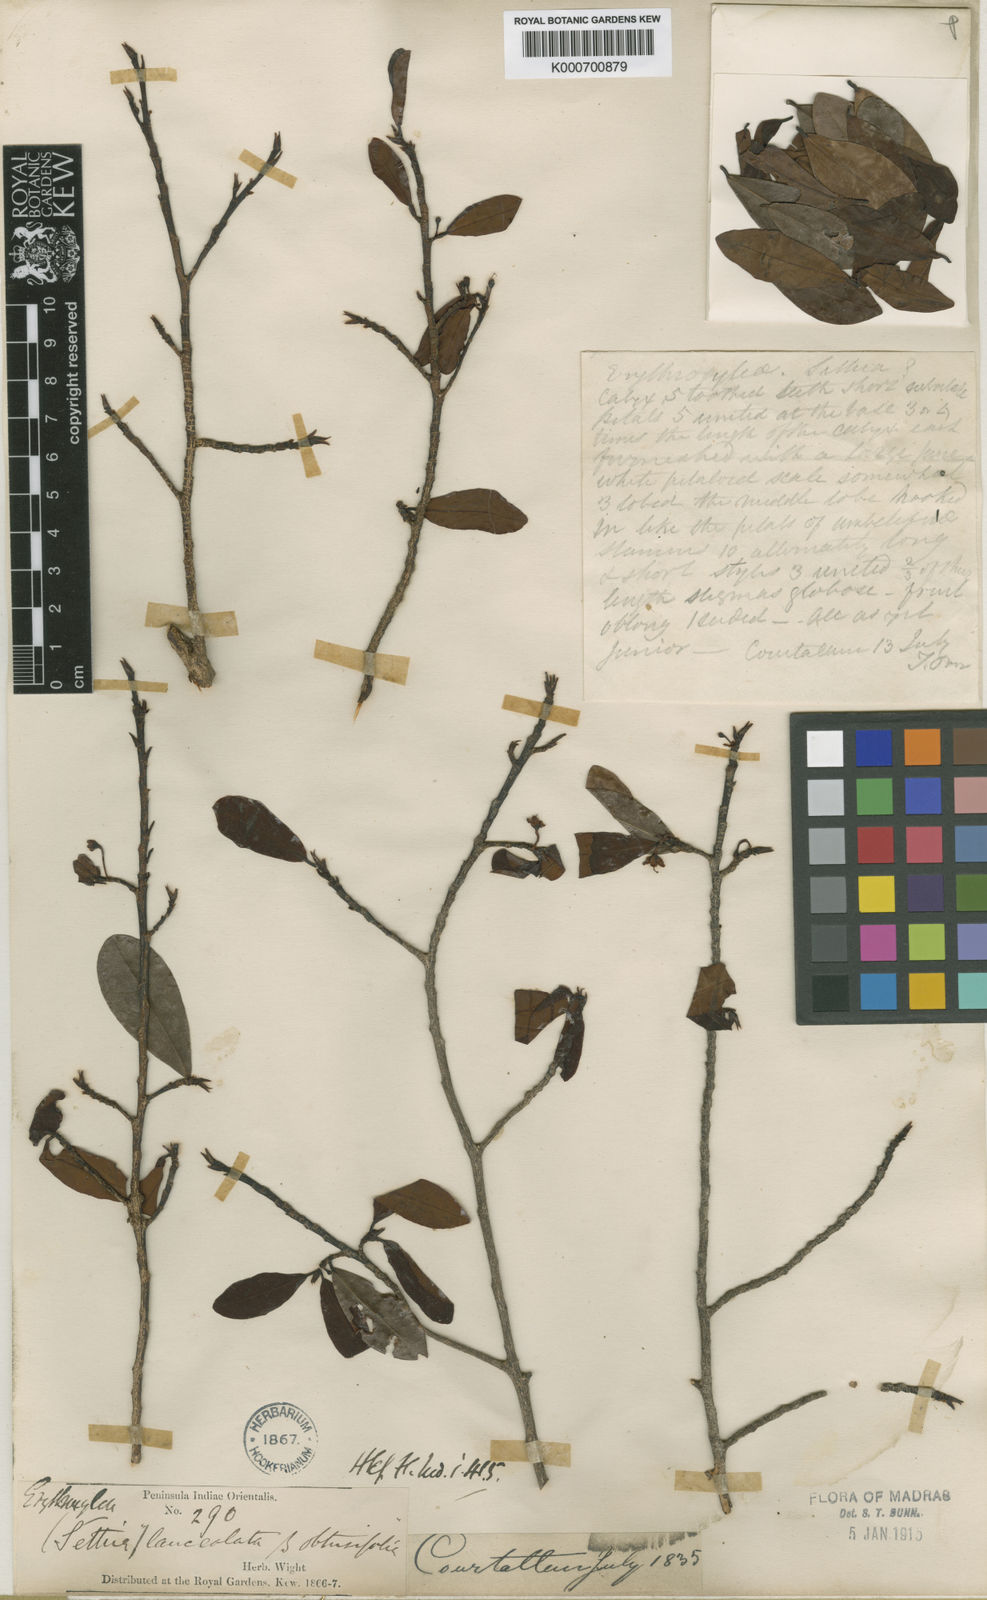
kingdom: Plantae
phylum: Tracheophyta
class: Magnoliopsida
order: Malpighiales
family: Erythroxylaceae
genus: Erythroxylum
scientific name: Erythroxylum obtusifolium
